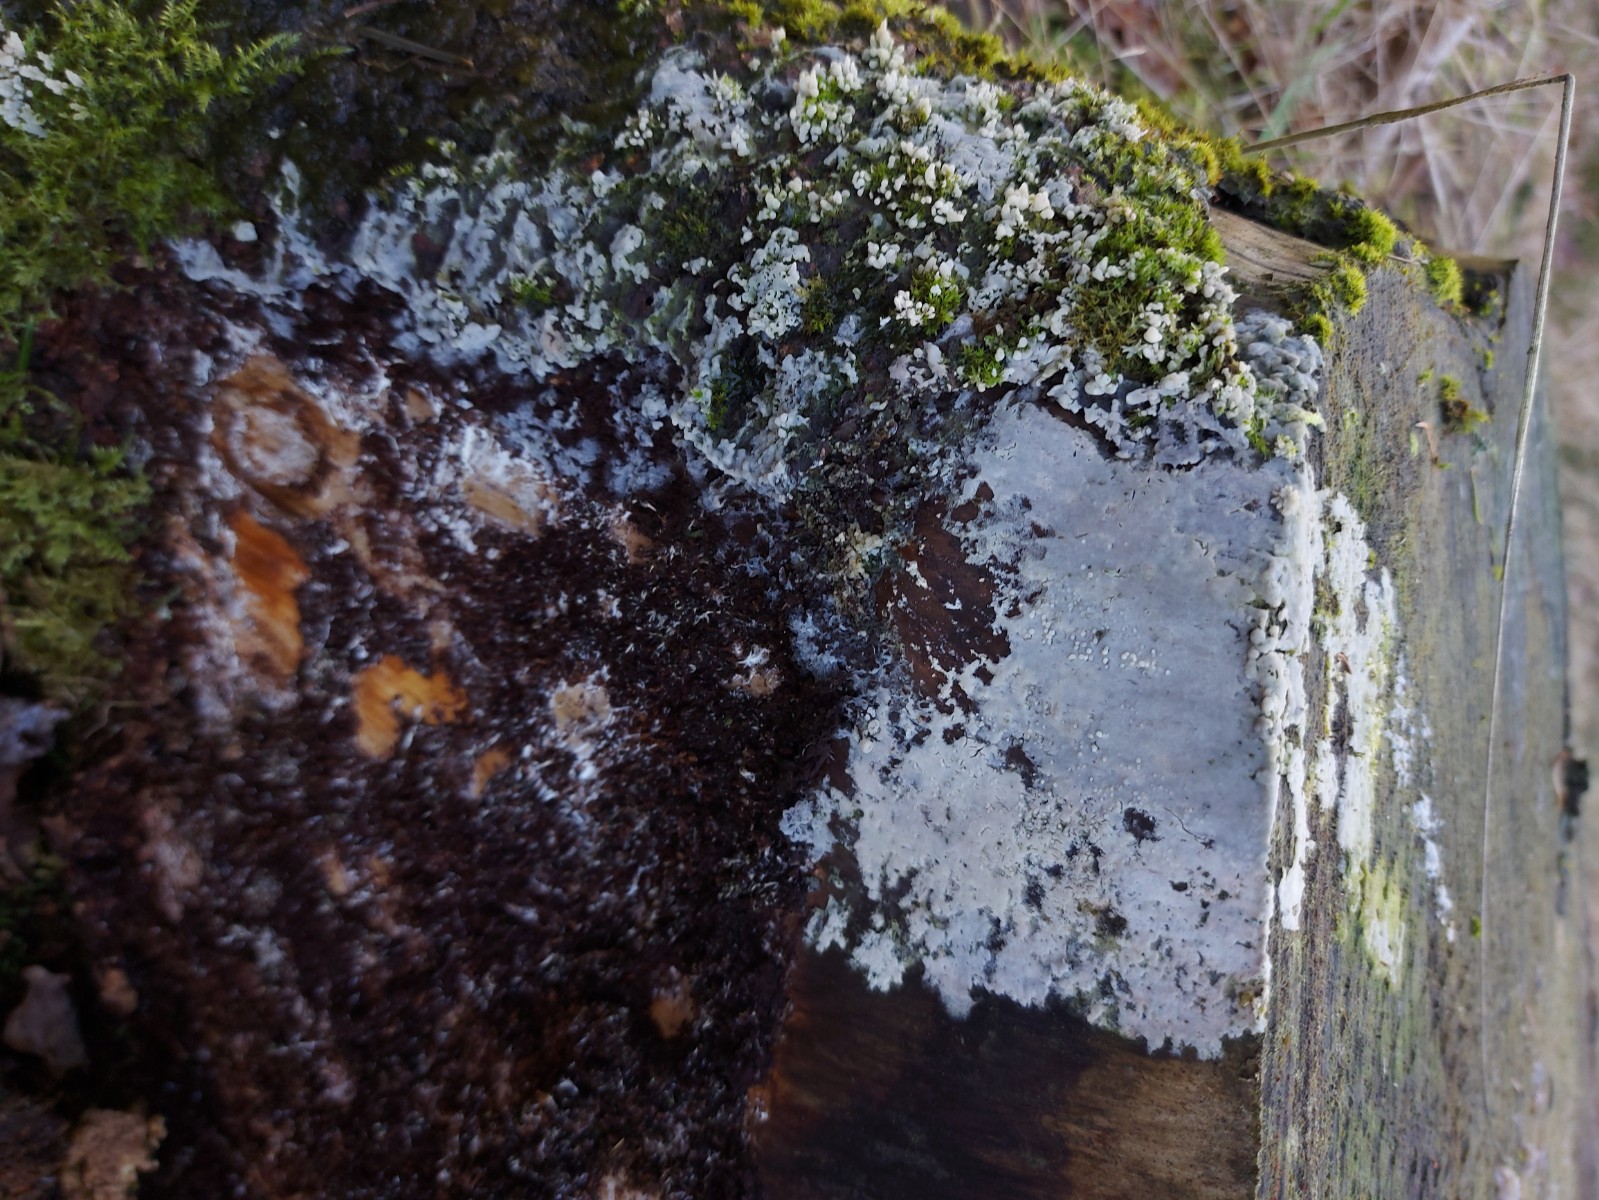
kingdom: Fungi
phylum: Basidiomycota
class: Tremellomycetes
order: Tremellales
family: Exidiaceae
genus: Exidiopsis
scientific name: Exidiopsis
